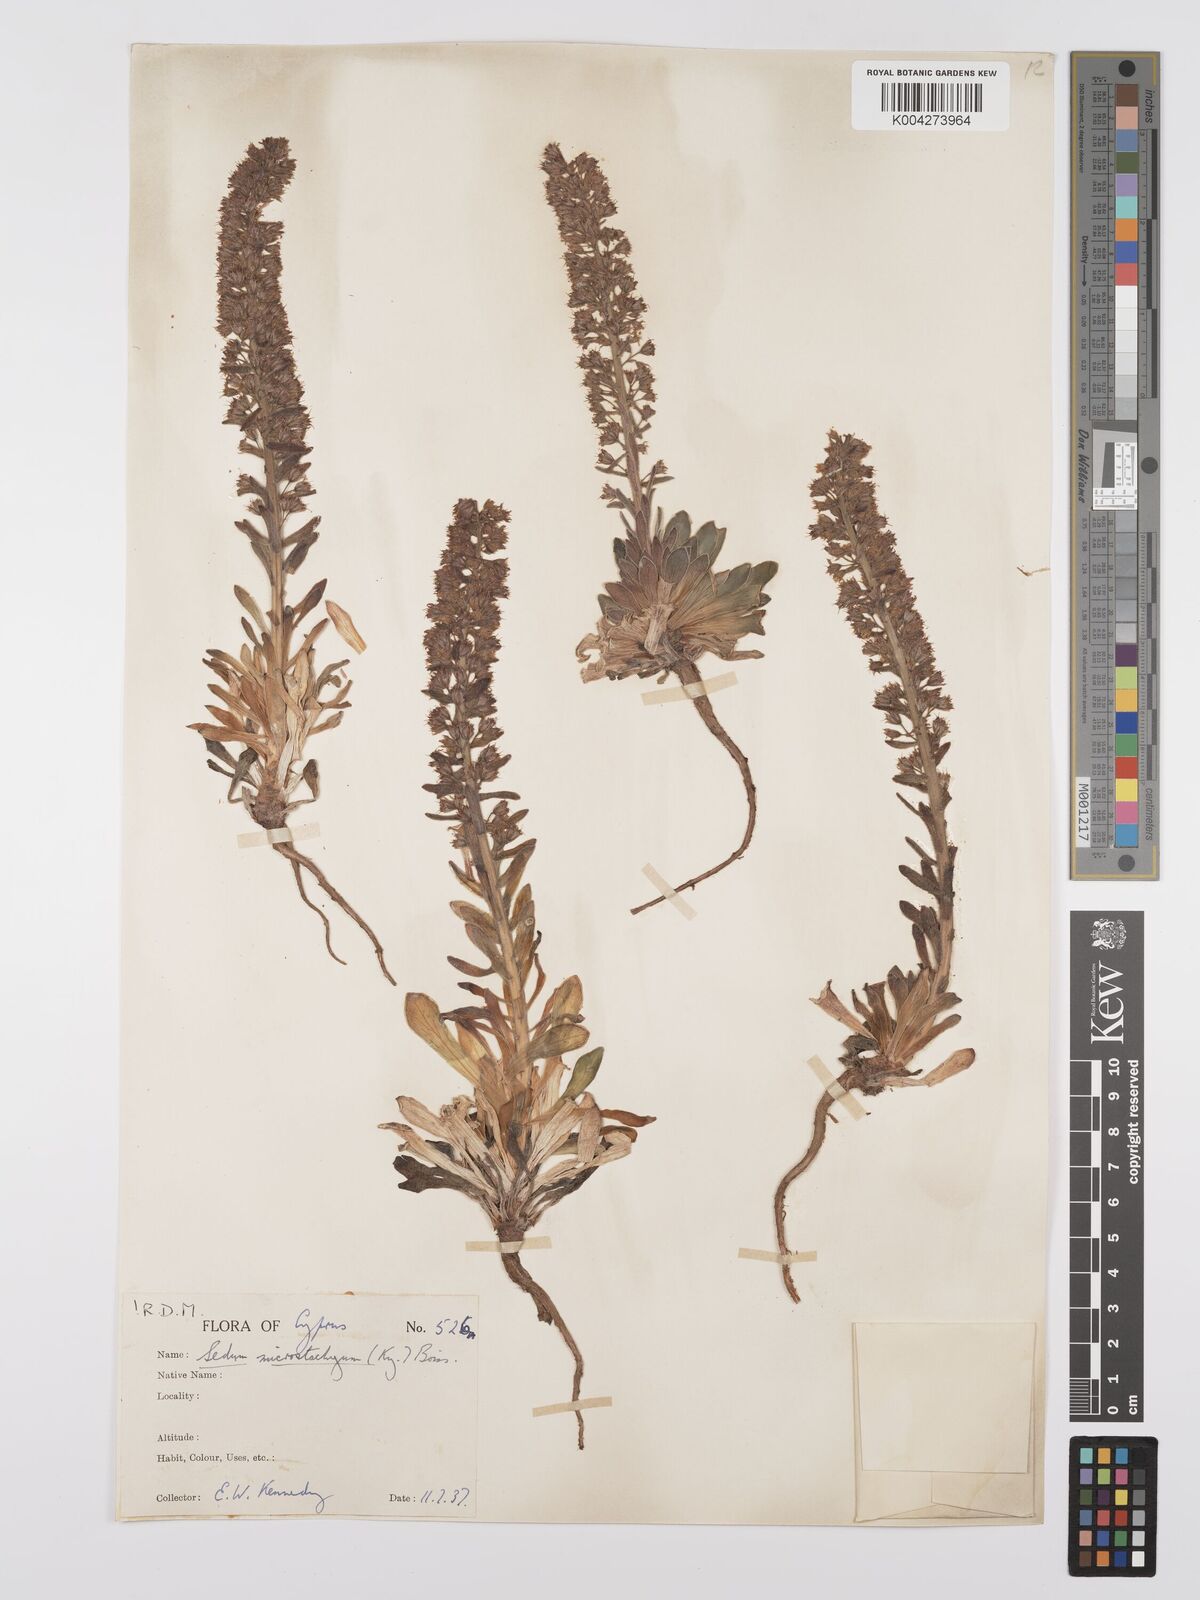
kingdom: Plantae
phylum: Tracheophyta
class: Magnoliopsida
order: Saxifragales
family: Crassulaceae
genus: Sedum
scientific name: Sedum microstachyum
